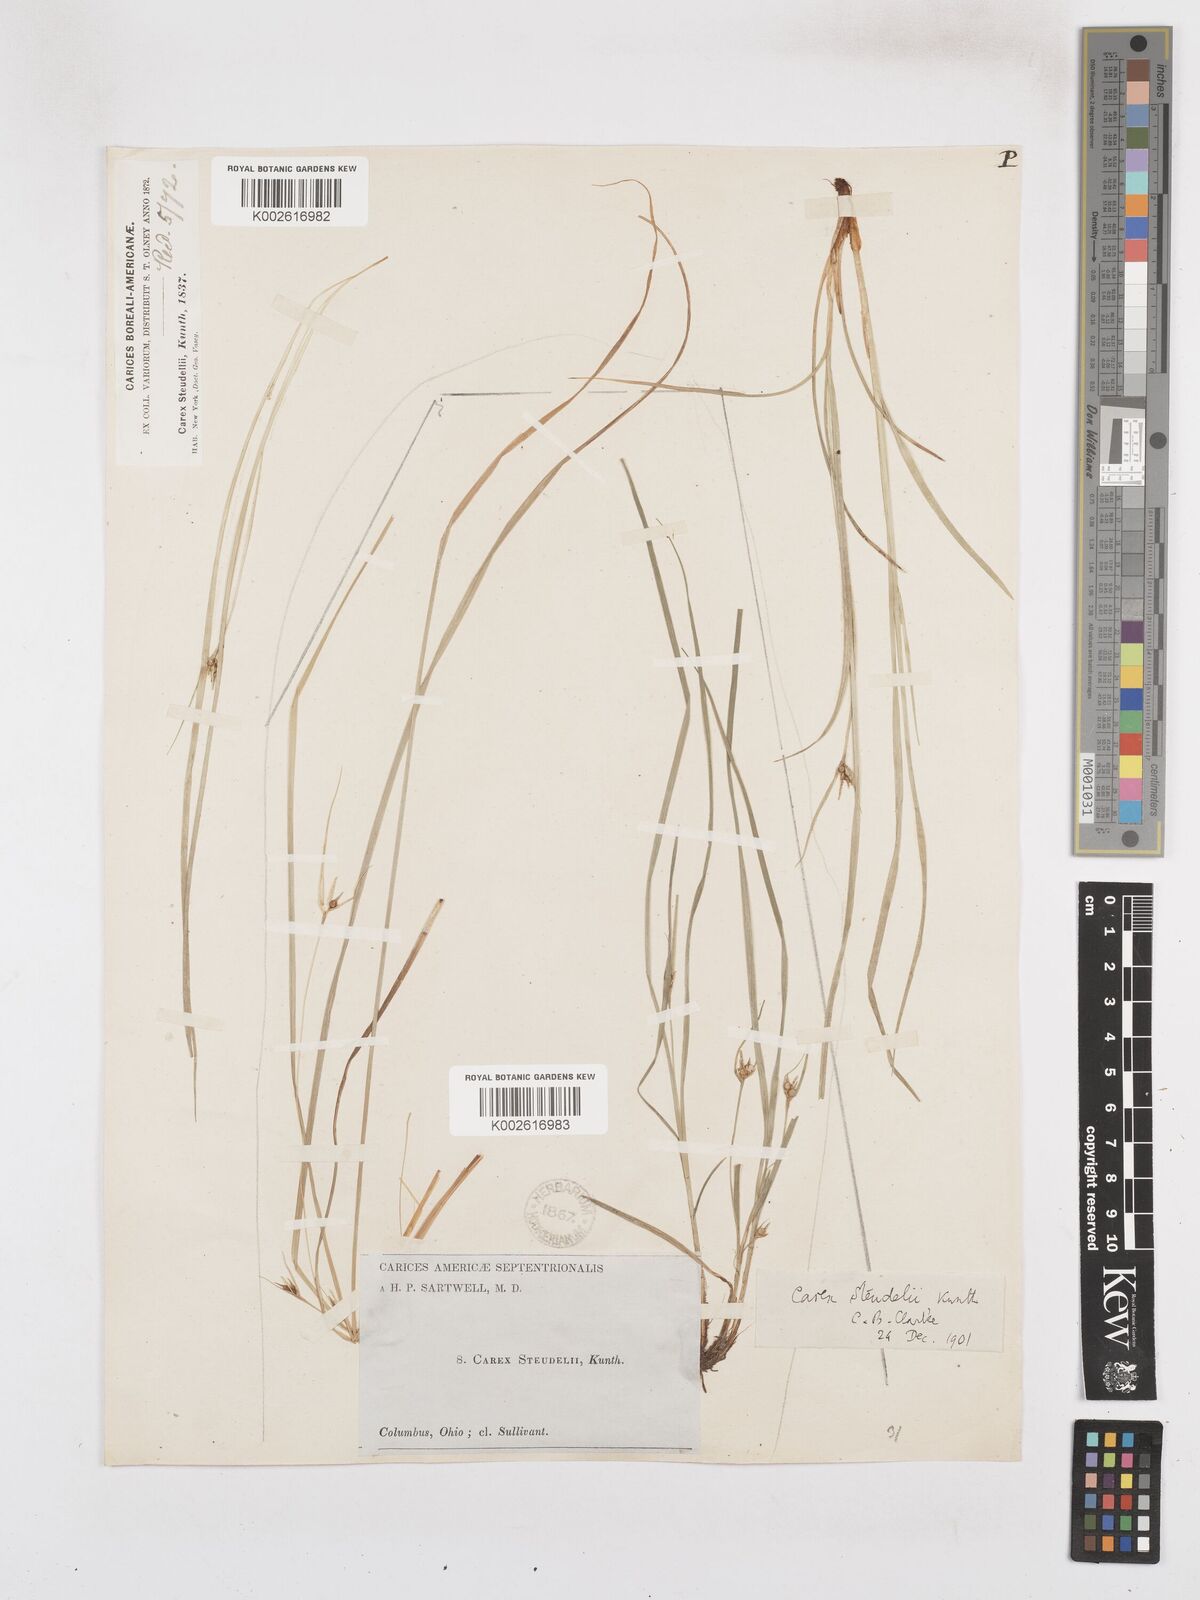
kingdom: Plantae
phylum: Tracheophyta
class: Liliopsida
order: Poales
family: Cyperaceae
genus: Carex
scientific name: Carex jamesii
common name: Grass sedge
